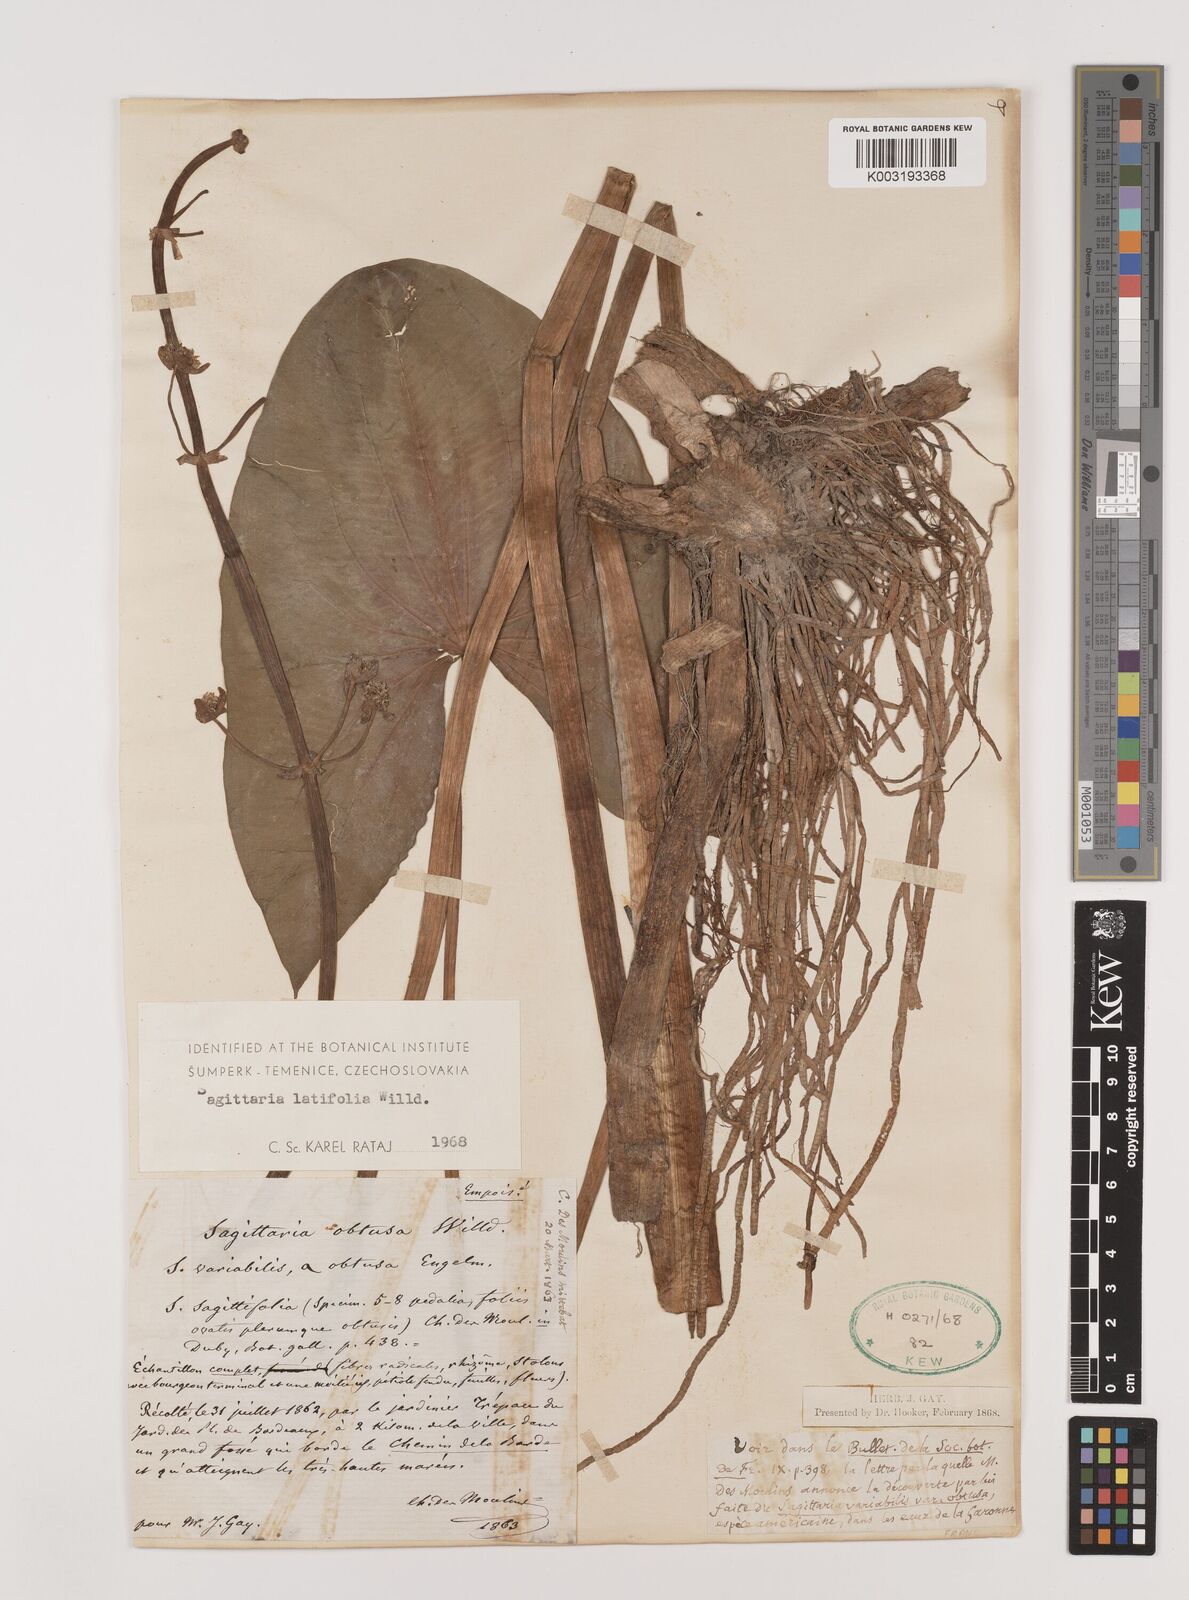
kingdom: Plantae
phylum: Tracheophyta
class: Liliopsida
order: Alismatales
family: Alismataceae
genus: Sagittaria
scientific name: Sagittaria latifolia
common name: Duck-potato
